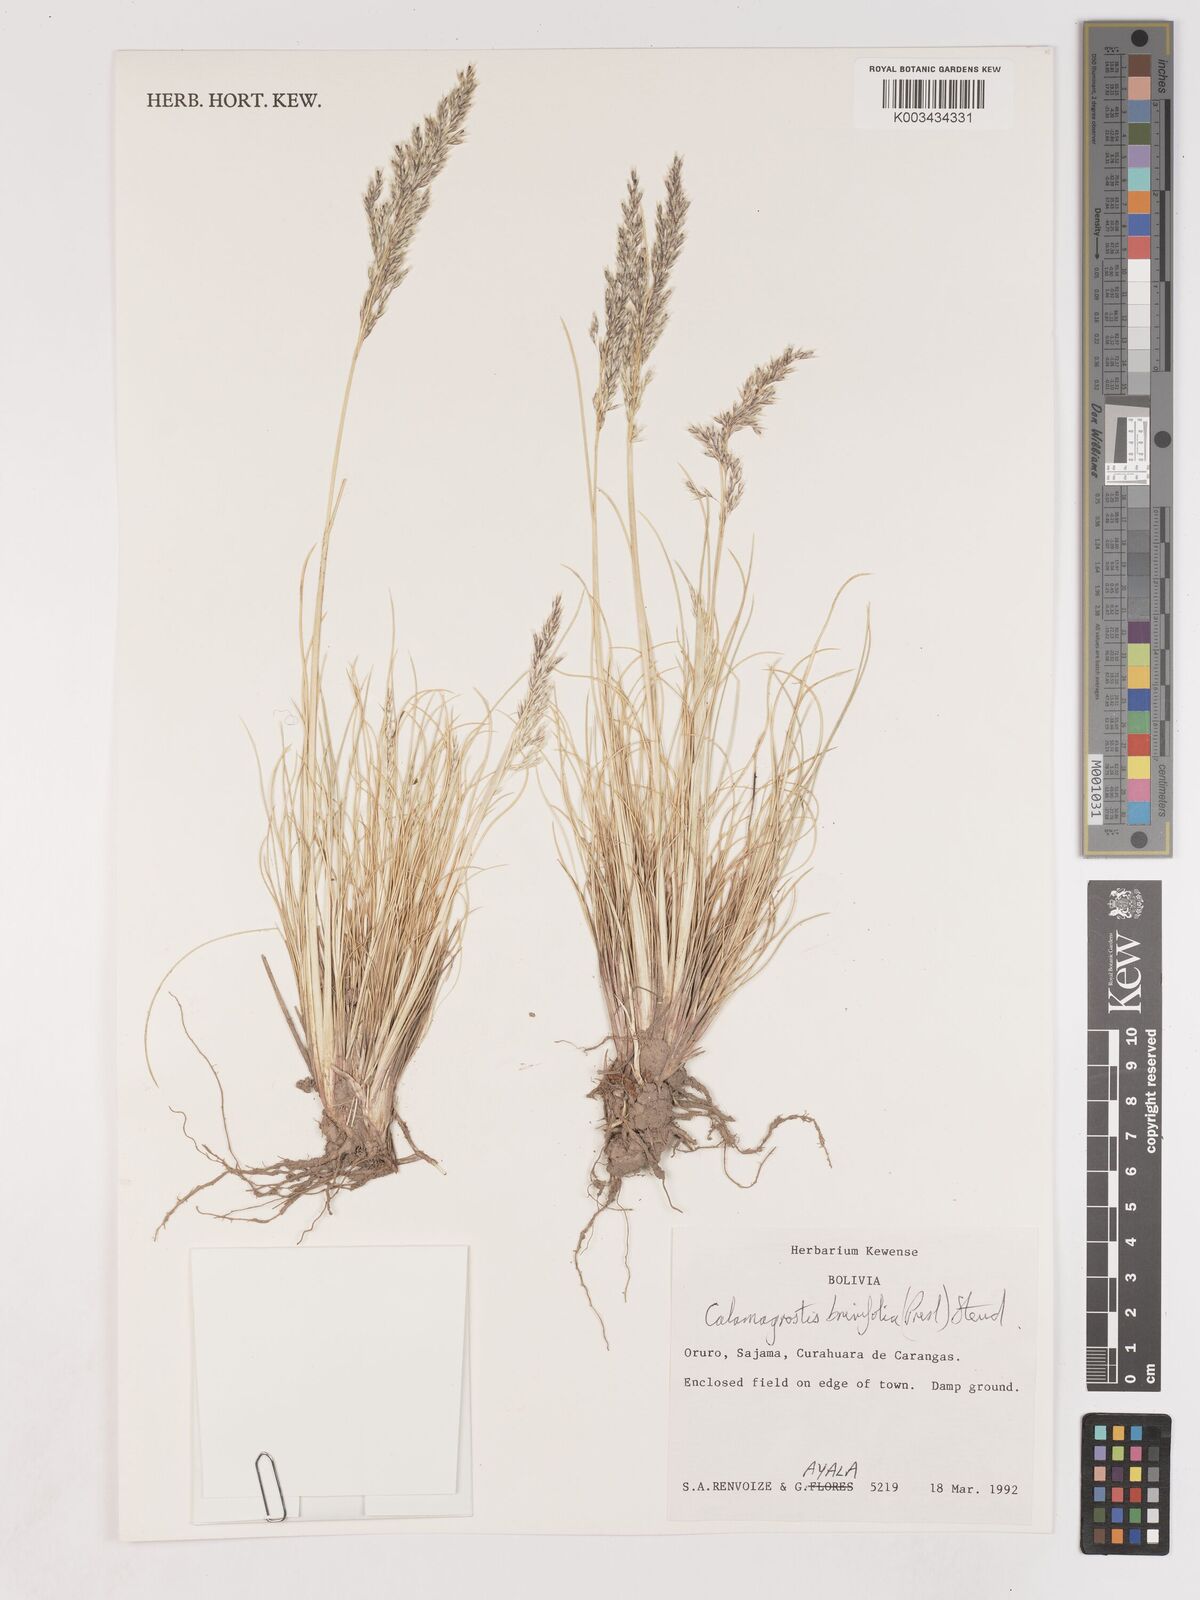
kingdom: Plantae
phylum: Tracheophyta
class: Liliopsida
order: Poales
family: Poaceae
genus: Cinnagrostis
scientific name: Cinnagrostis brevifolia
